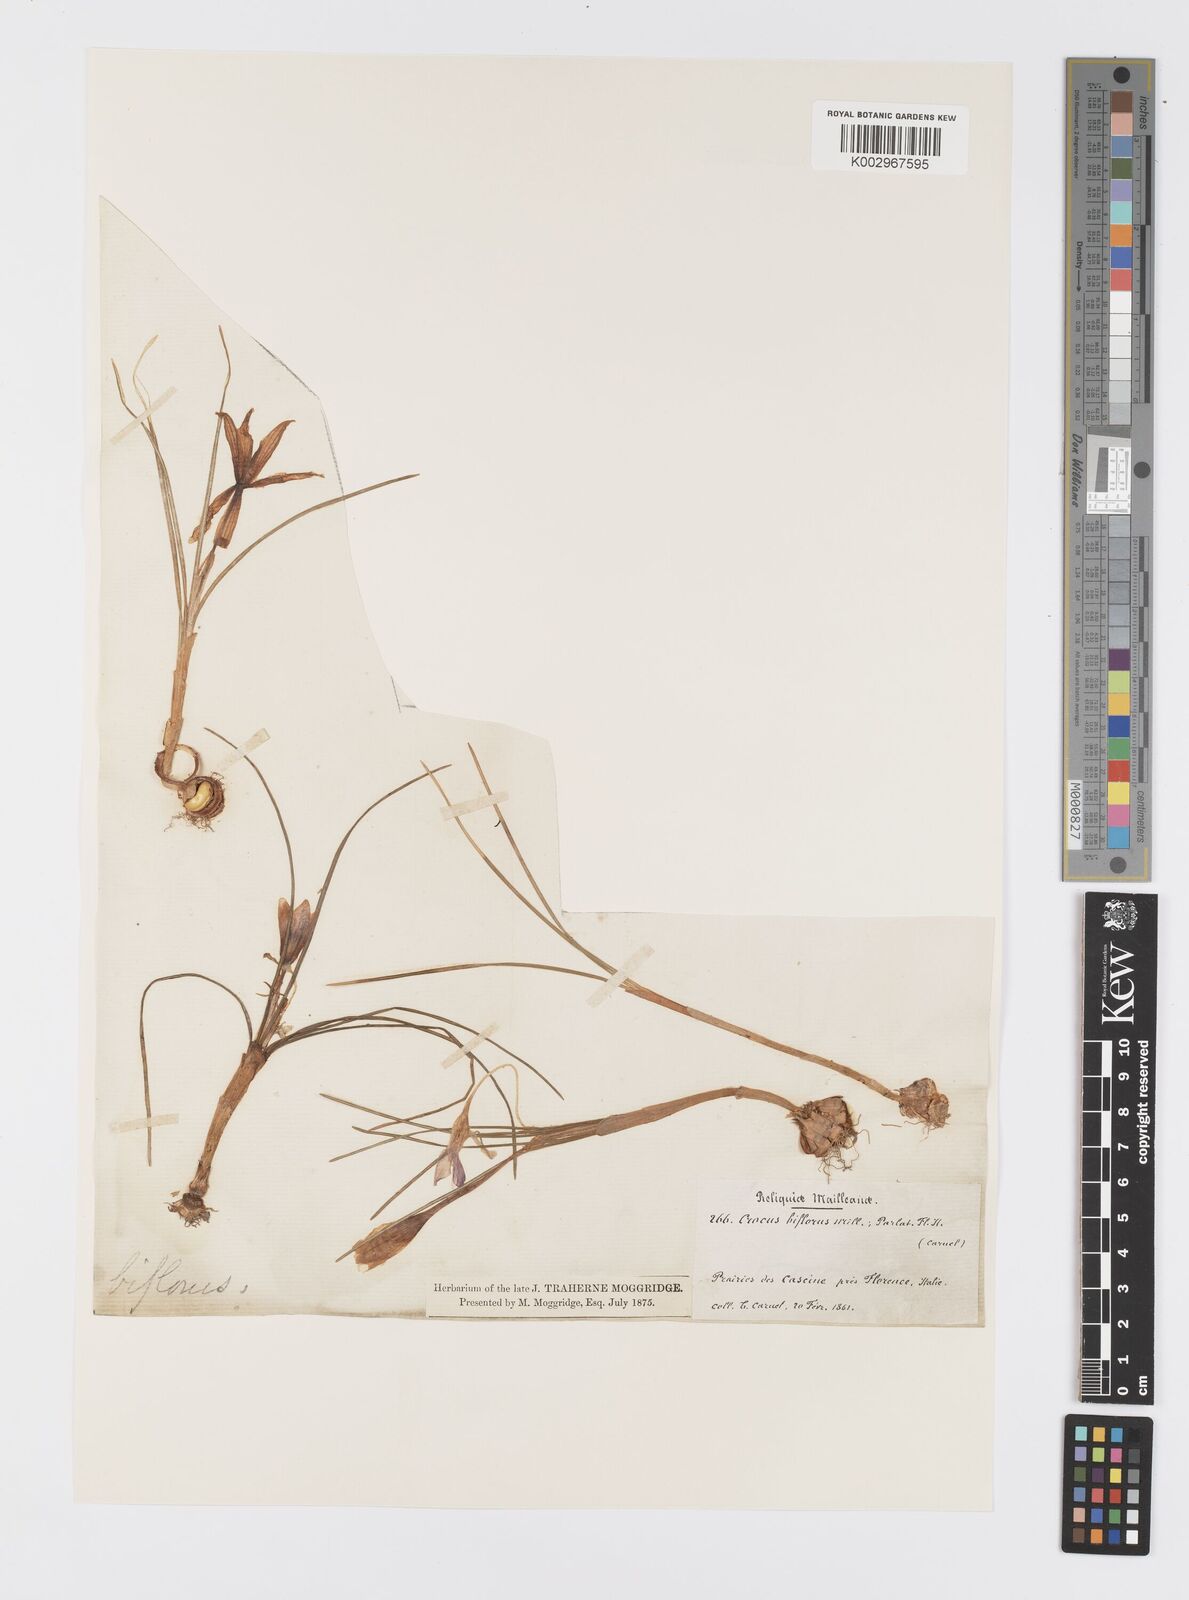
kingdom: Plantae
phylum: Tracheophyta
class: Liliopsida
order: Asparagales
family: Iridaceae
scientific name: Iridaceae
